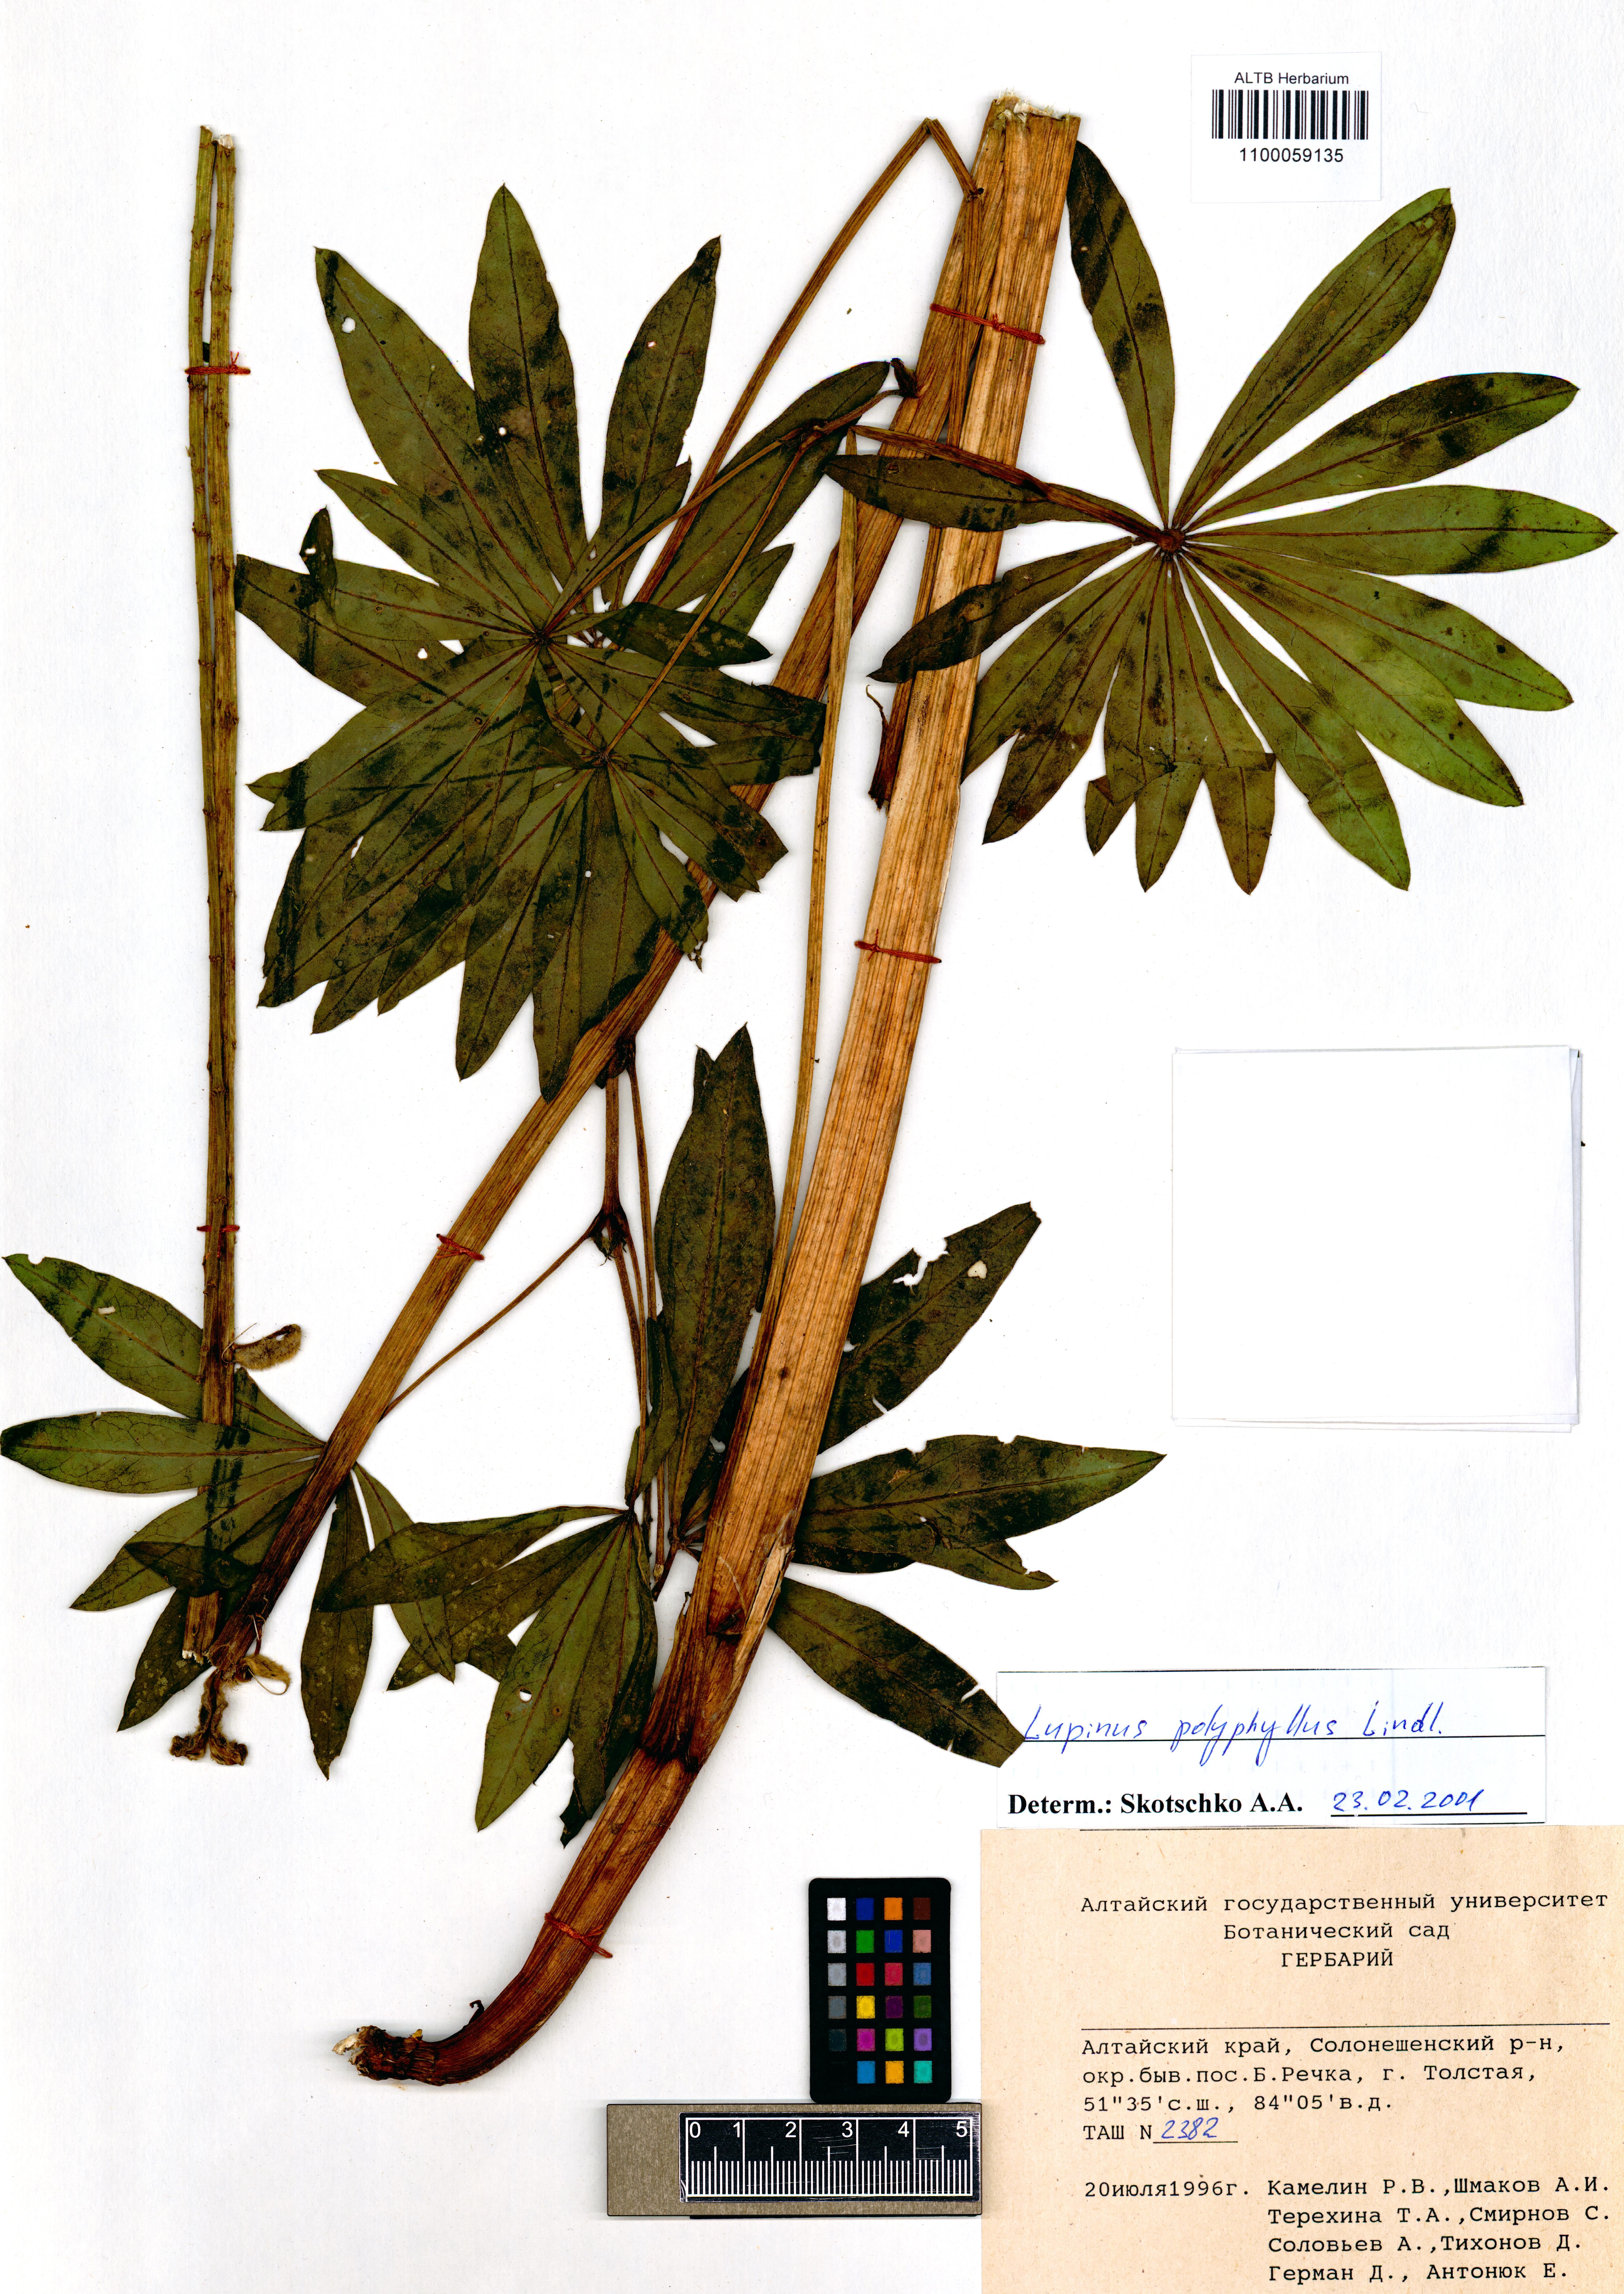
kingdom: Plantae
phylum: Tracheophyta
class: Magnoliopsida
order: Fabales
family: Fabaceae
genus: Trifolium
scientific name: Trifolium polyphyllum
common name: Many-leaf clover
